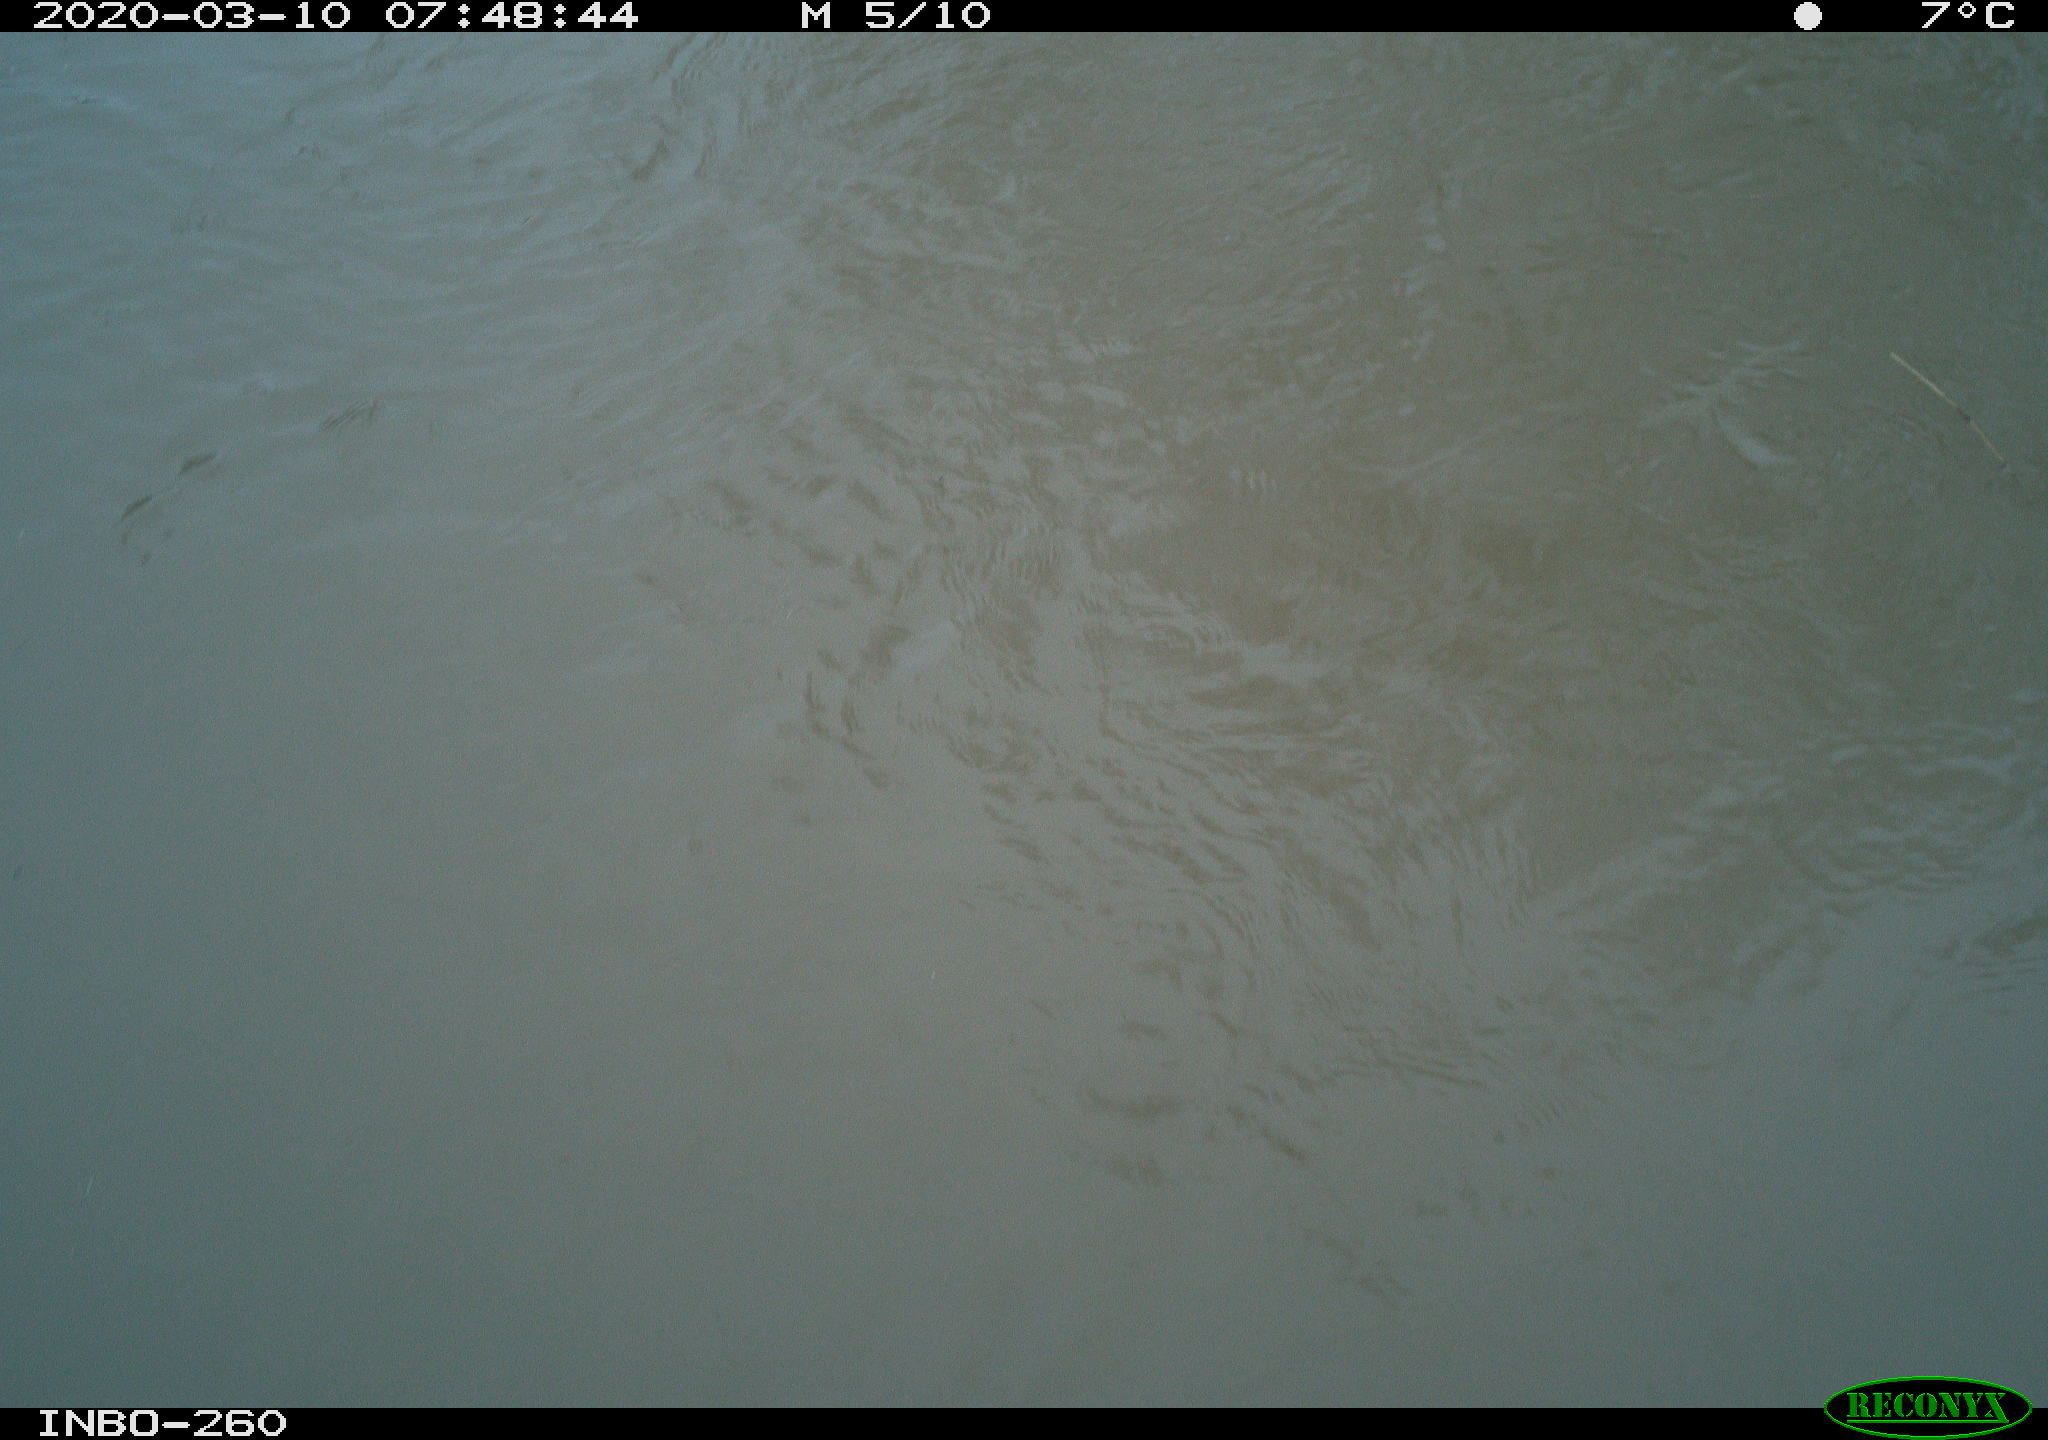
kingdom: Animalia
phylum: Chordata
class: Aves
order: Anseriformes
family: Anatidae
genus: Anas
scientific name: Anas platyrhynchos
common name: Mallard
